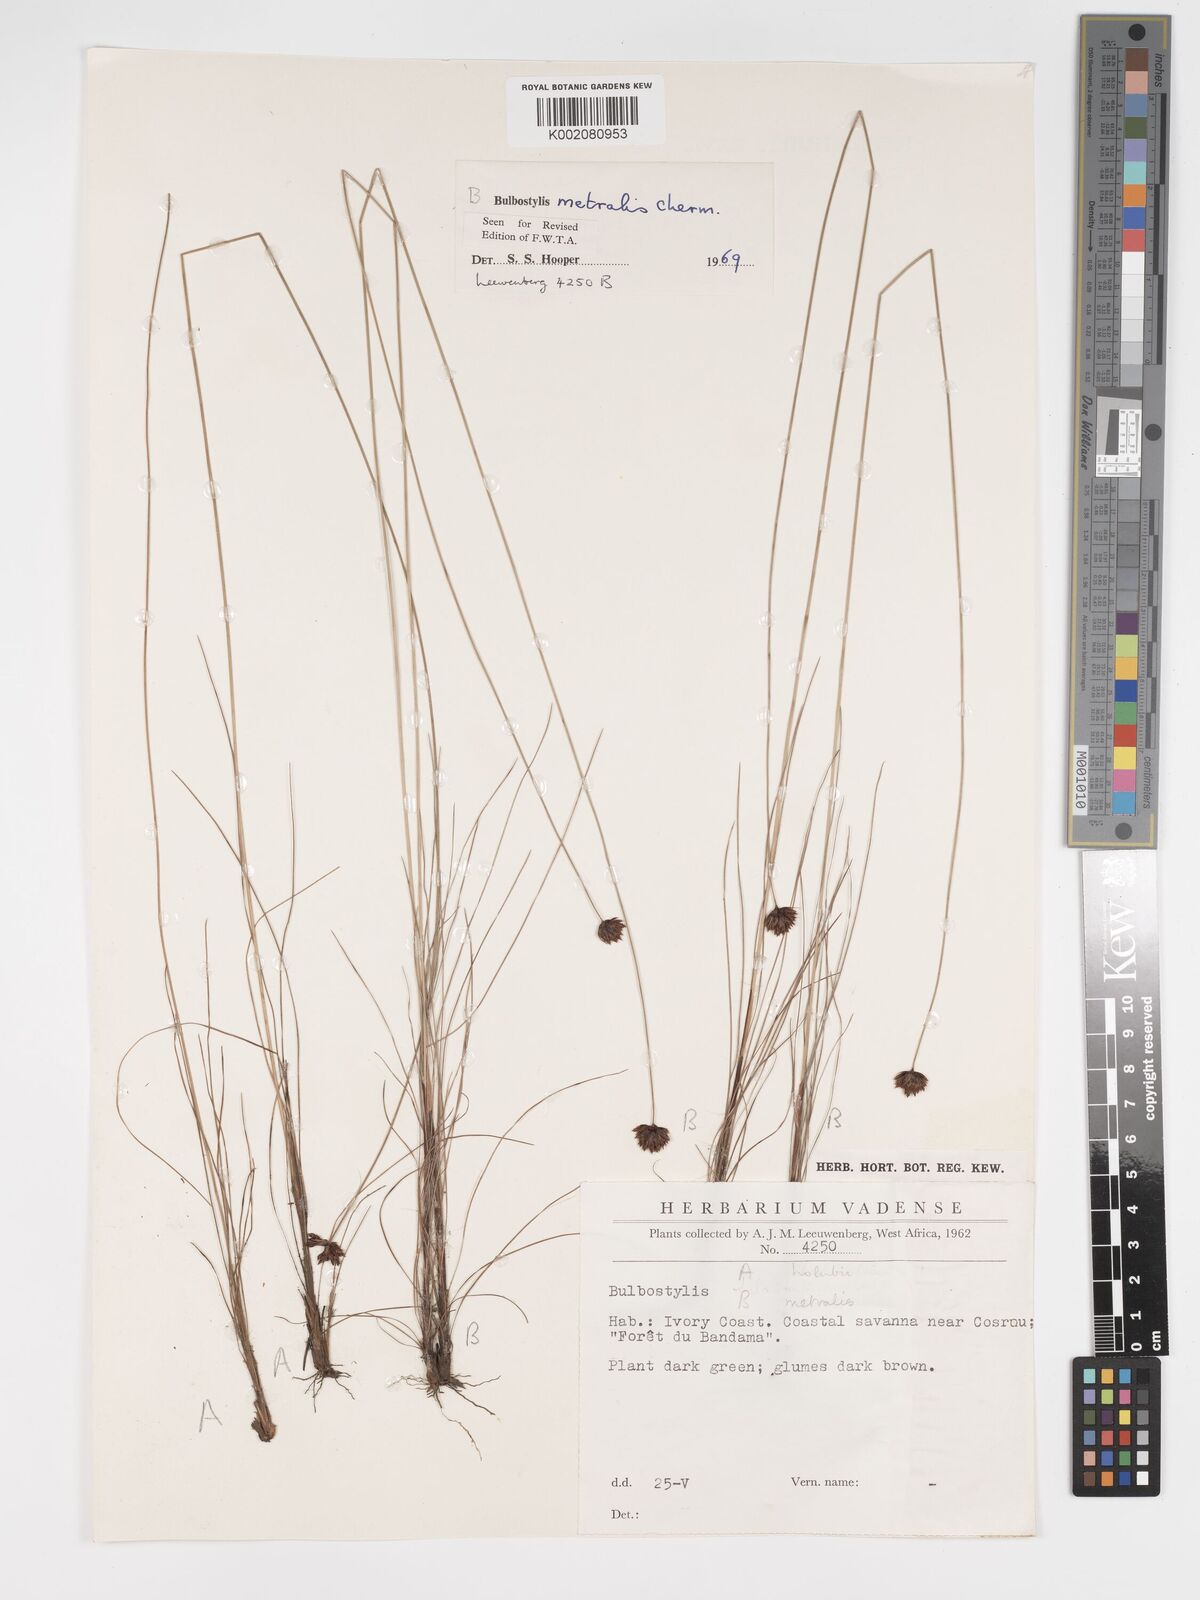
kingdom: Plantae
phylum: Tracheophyta
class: Liliopsida
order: Poales
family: Cyperaceae
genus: Bulbostylis
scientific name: Bulbostylis filamentosa
